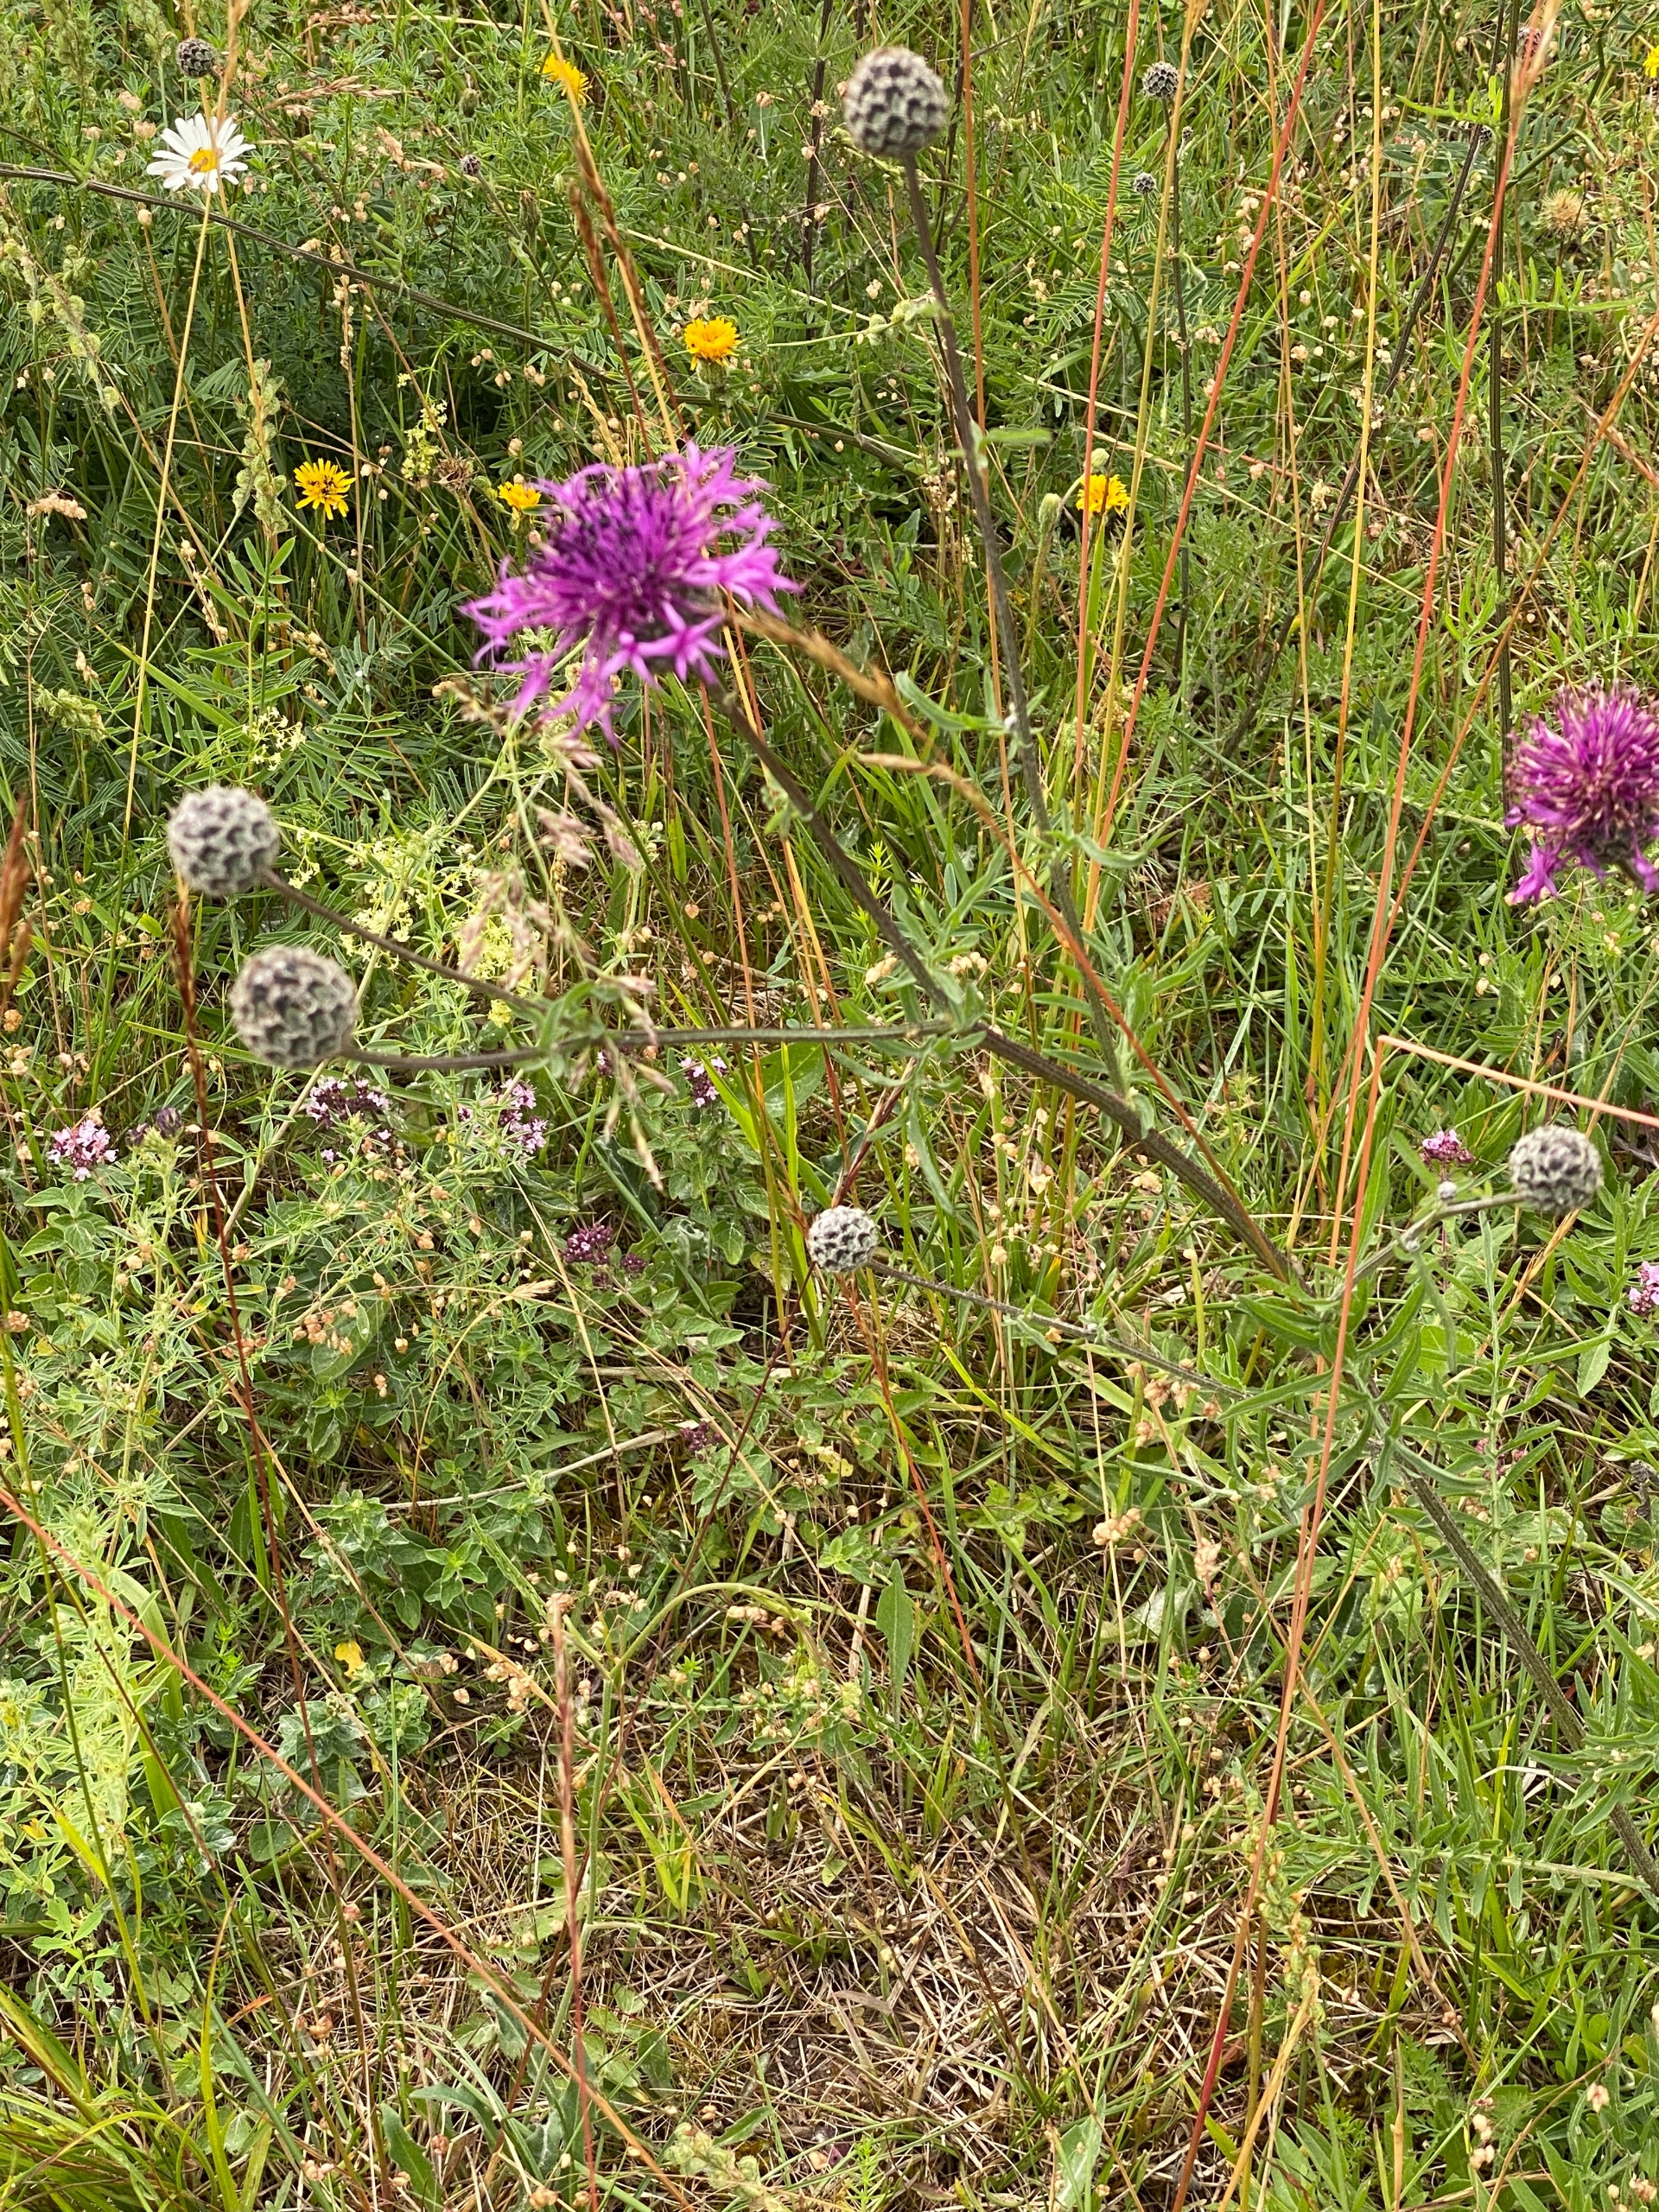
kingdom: Plantae
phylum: Tracheophyta
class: Magnoliopsida
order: Asterales
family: Asteraceae
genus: Centaurea
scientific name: Centaurea scabiosa
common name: Stor knopurt
